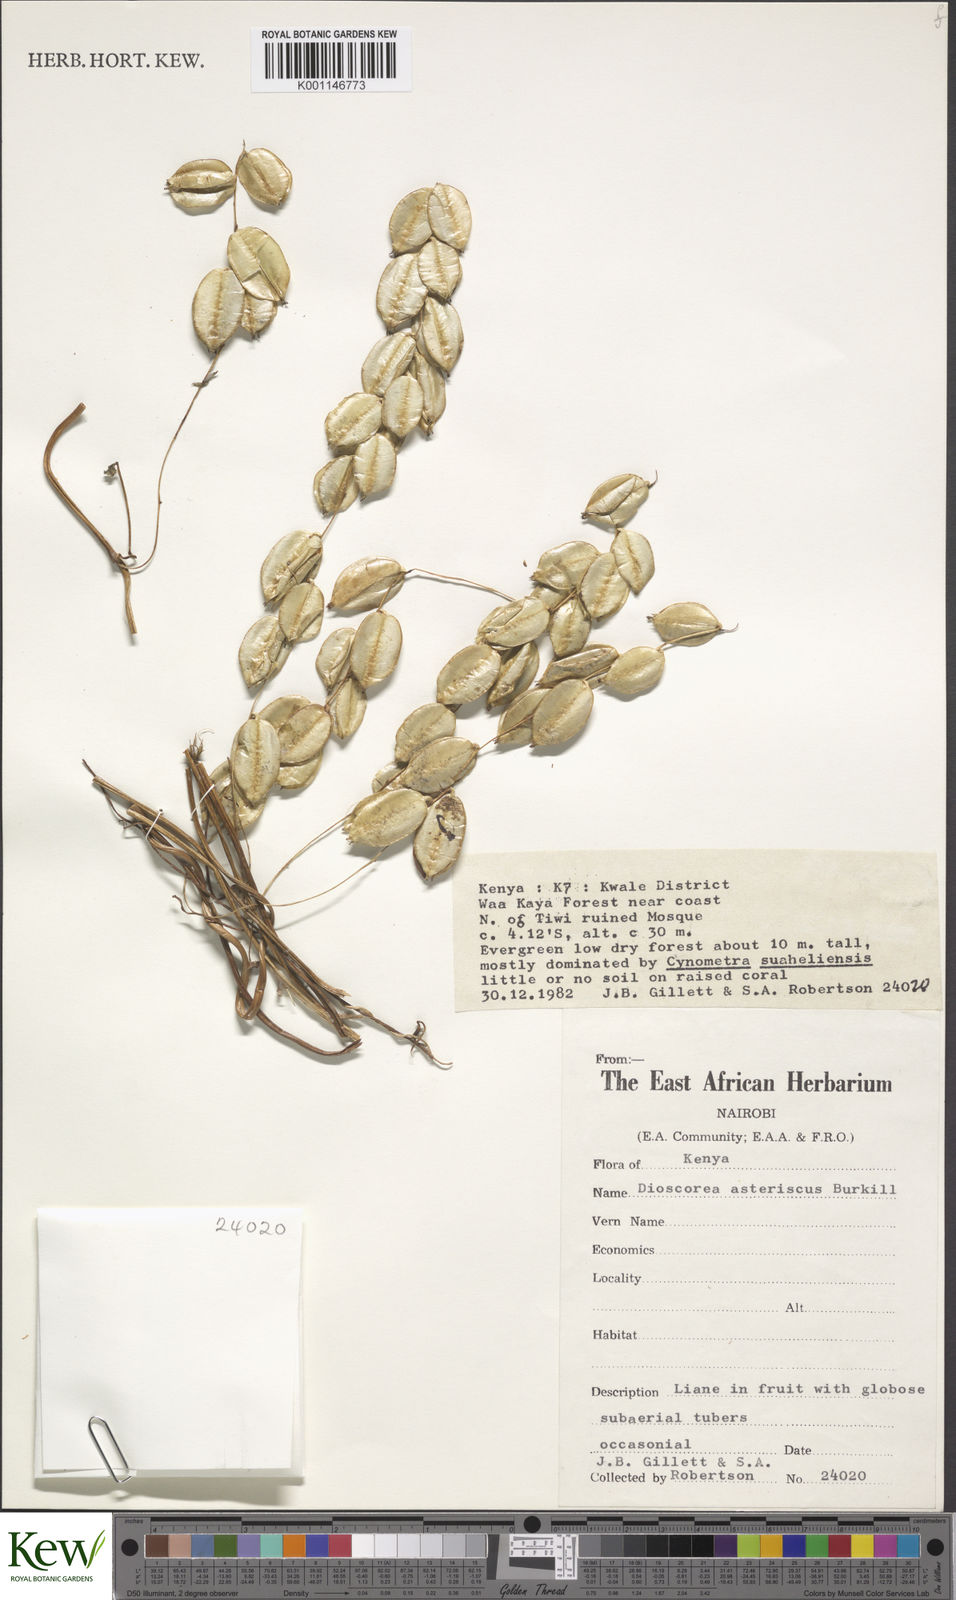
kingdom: Plantae
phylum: Tracheophyta
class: Liliopsida
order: Dioscoreales
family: Dioscoreaceae
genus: Dioscorea
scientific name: Dioscorea asteriscus
